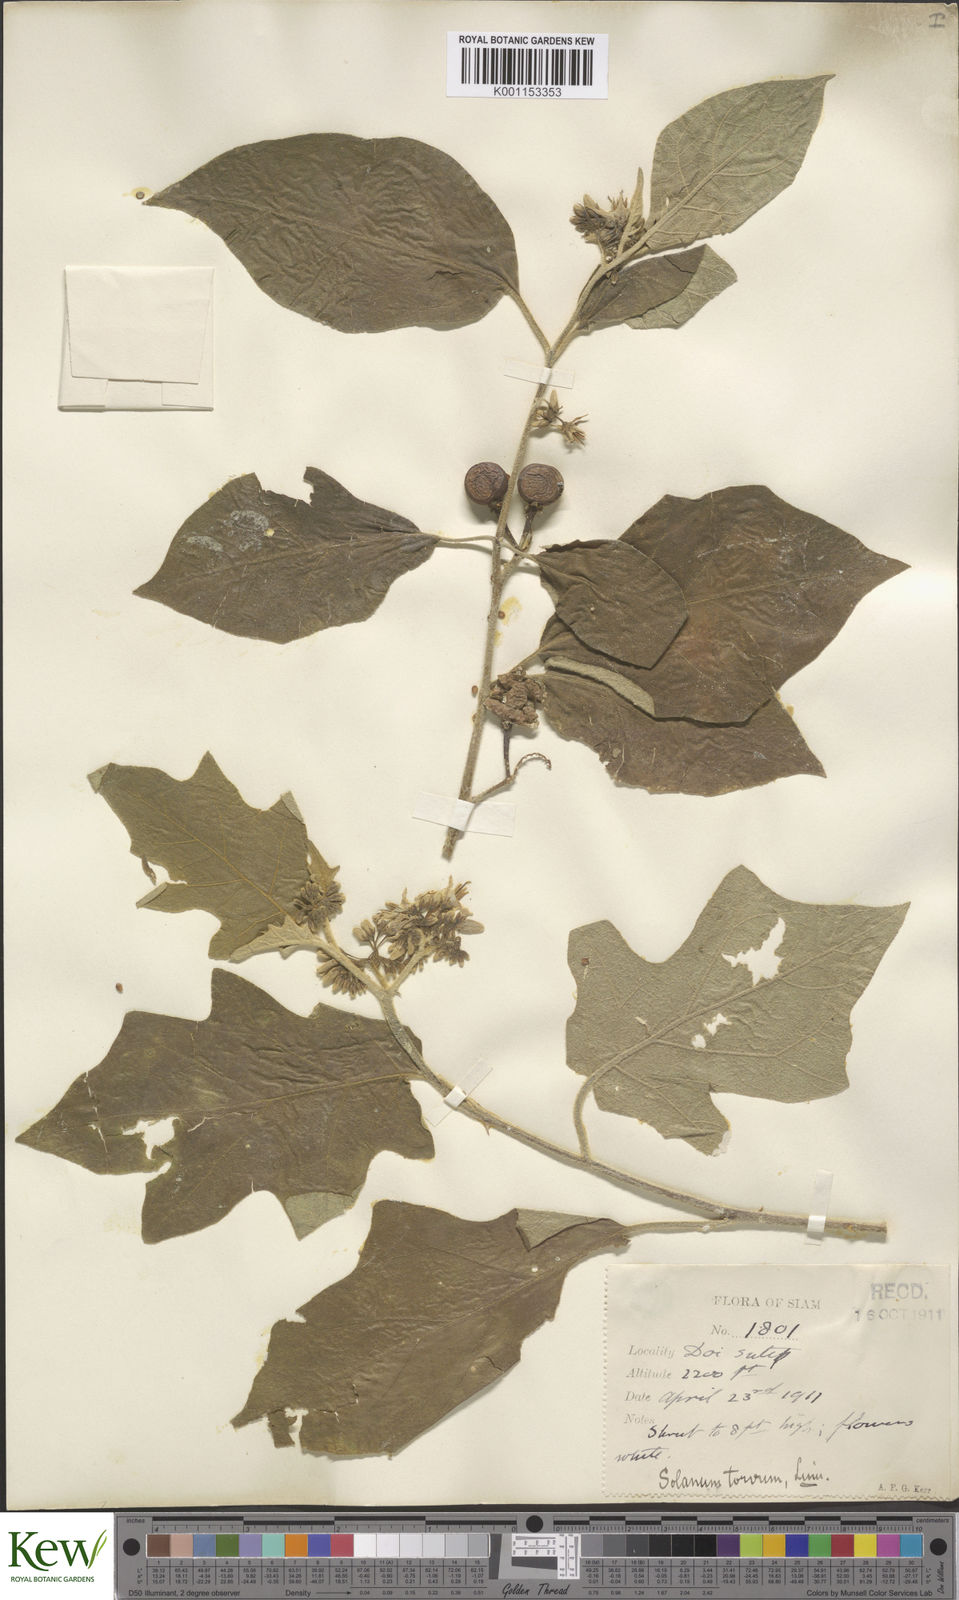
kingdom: Plantae
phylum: Tracheophyta
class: Magnoliopsida
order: Solanales
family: Solanaceae
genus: Solanum
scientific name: Solanum torvum
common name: Turkey berry
